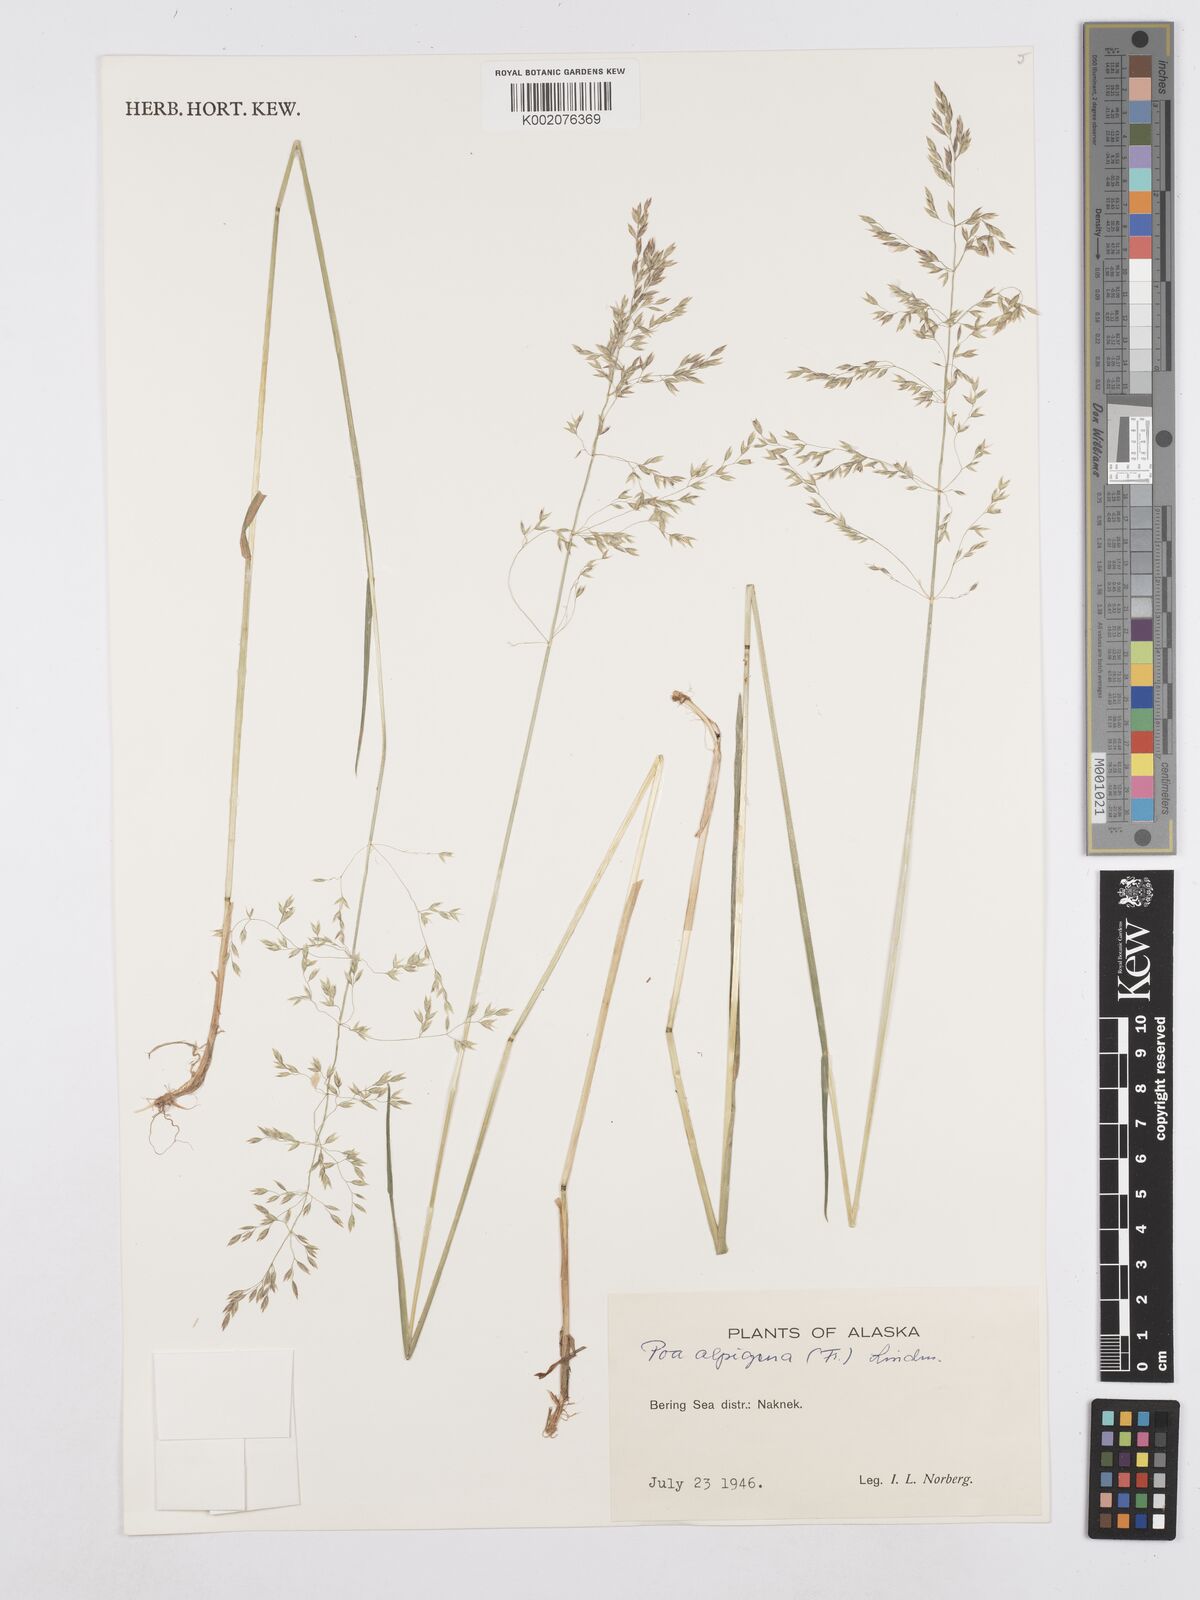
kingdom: Plantae
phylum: Tracheophyta
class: Liliopsida
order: Poales
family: Poaceae
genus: Poa
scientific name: Poa alpigena
